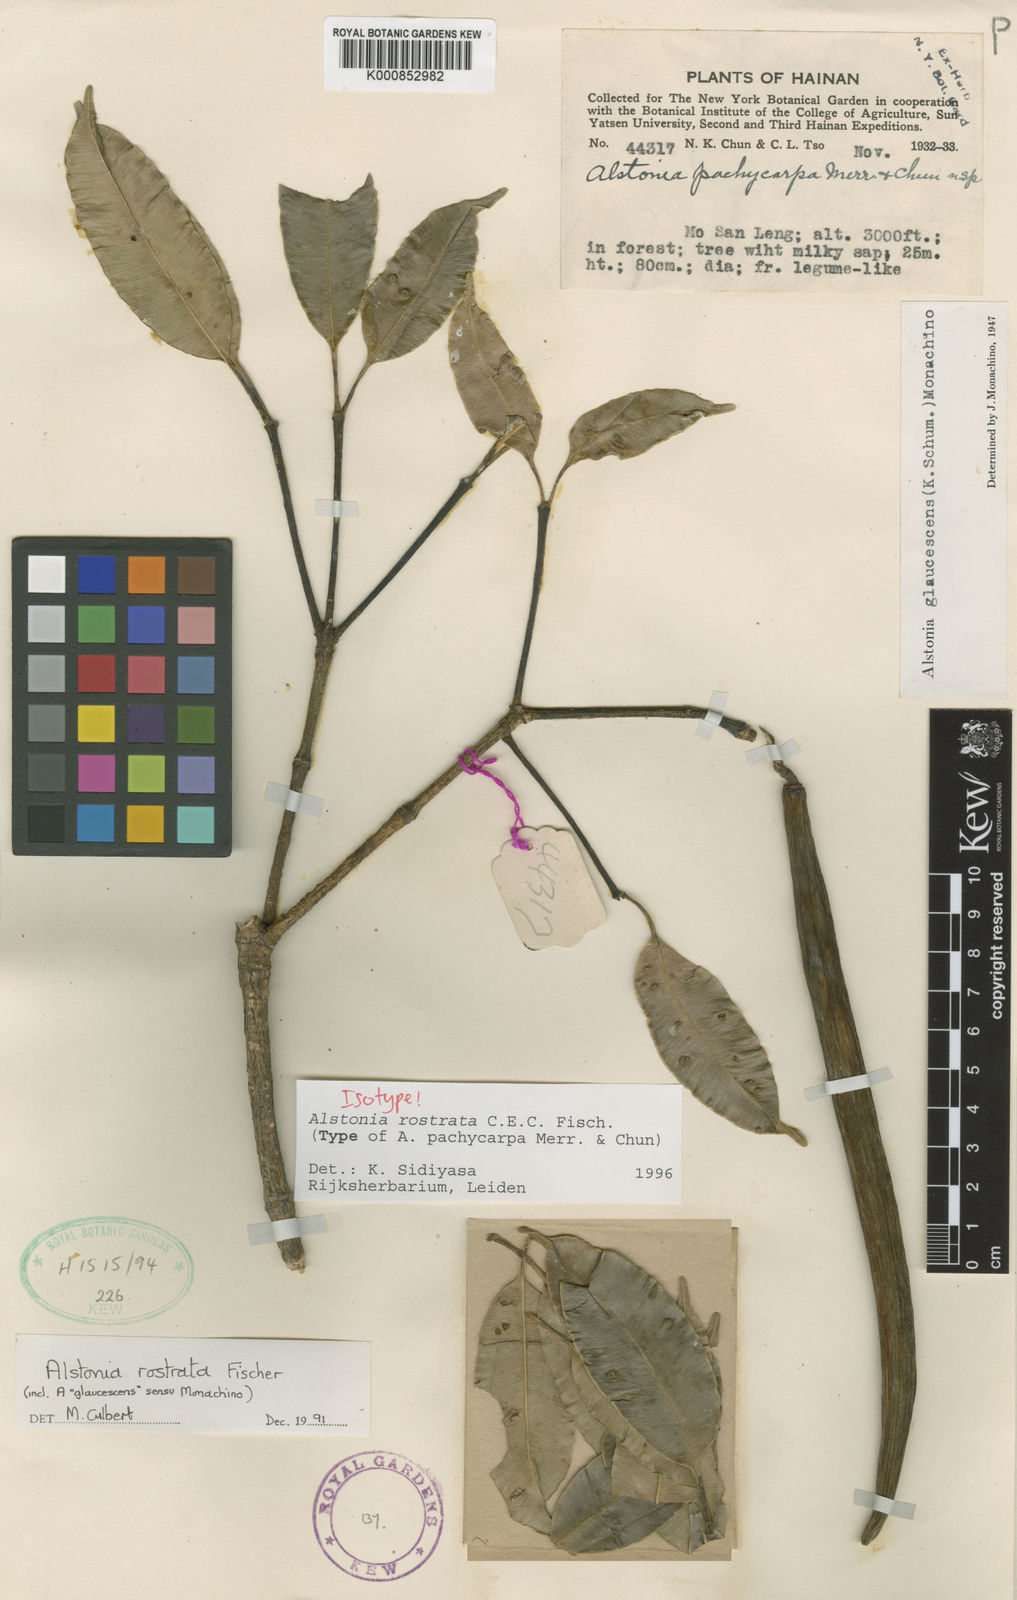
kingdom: Plantae
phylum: Tracheophyta
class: Magnoliopsida
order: Gentianales
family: Apocynaceae
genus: Alstonia
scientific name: Alstonia rostrata
